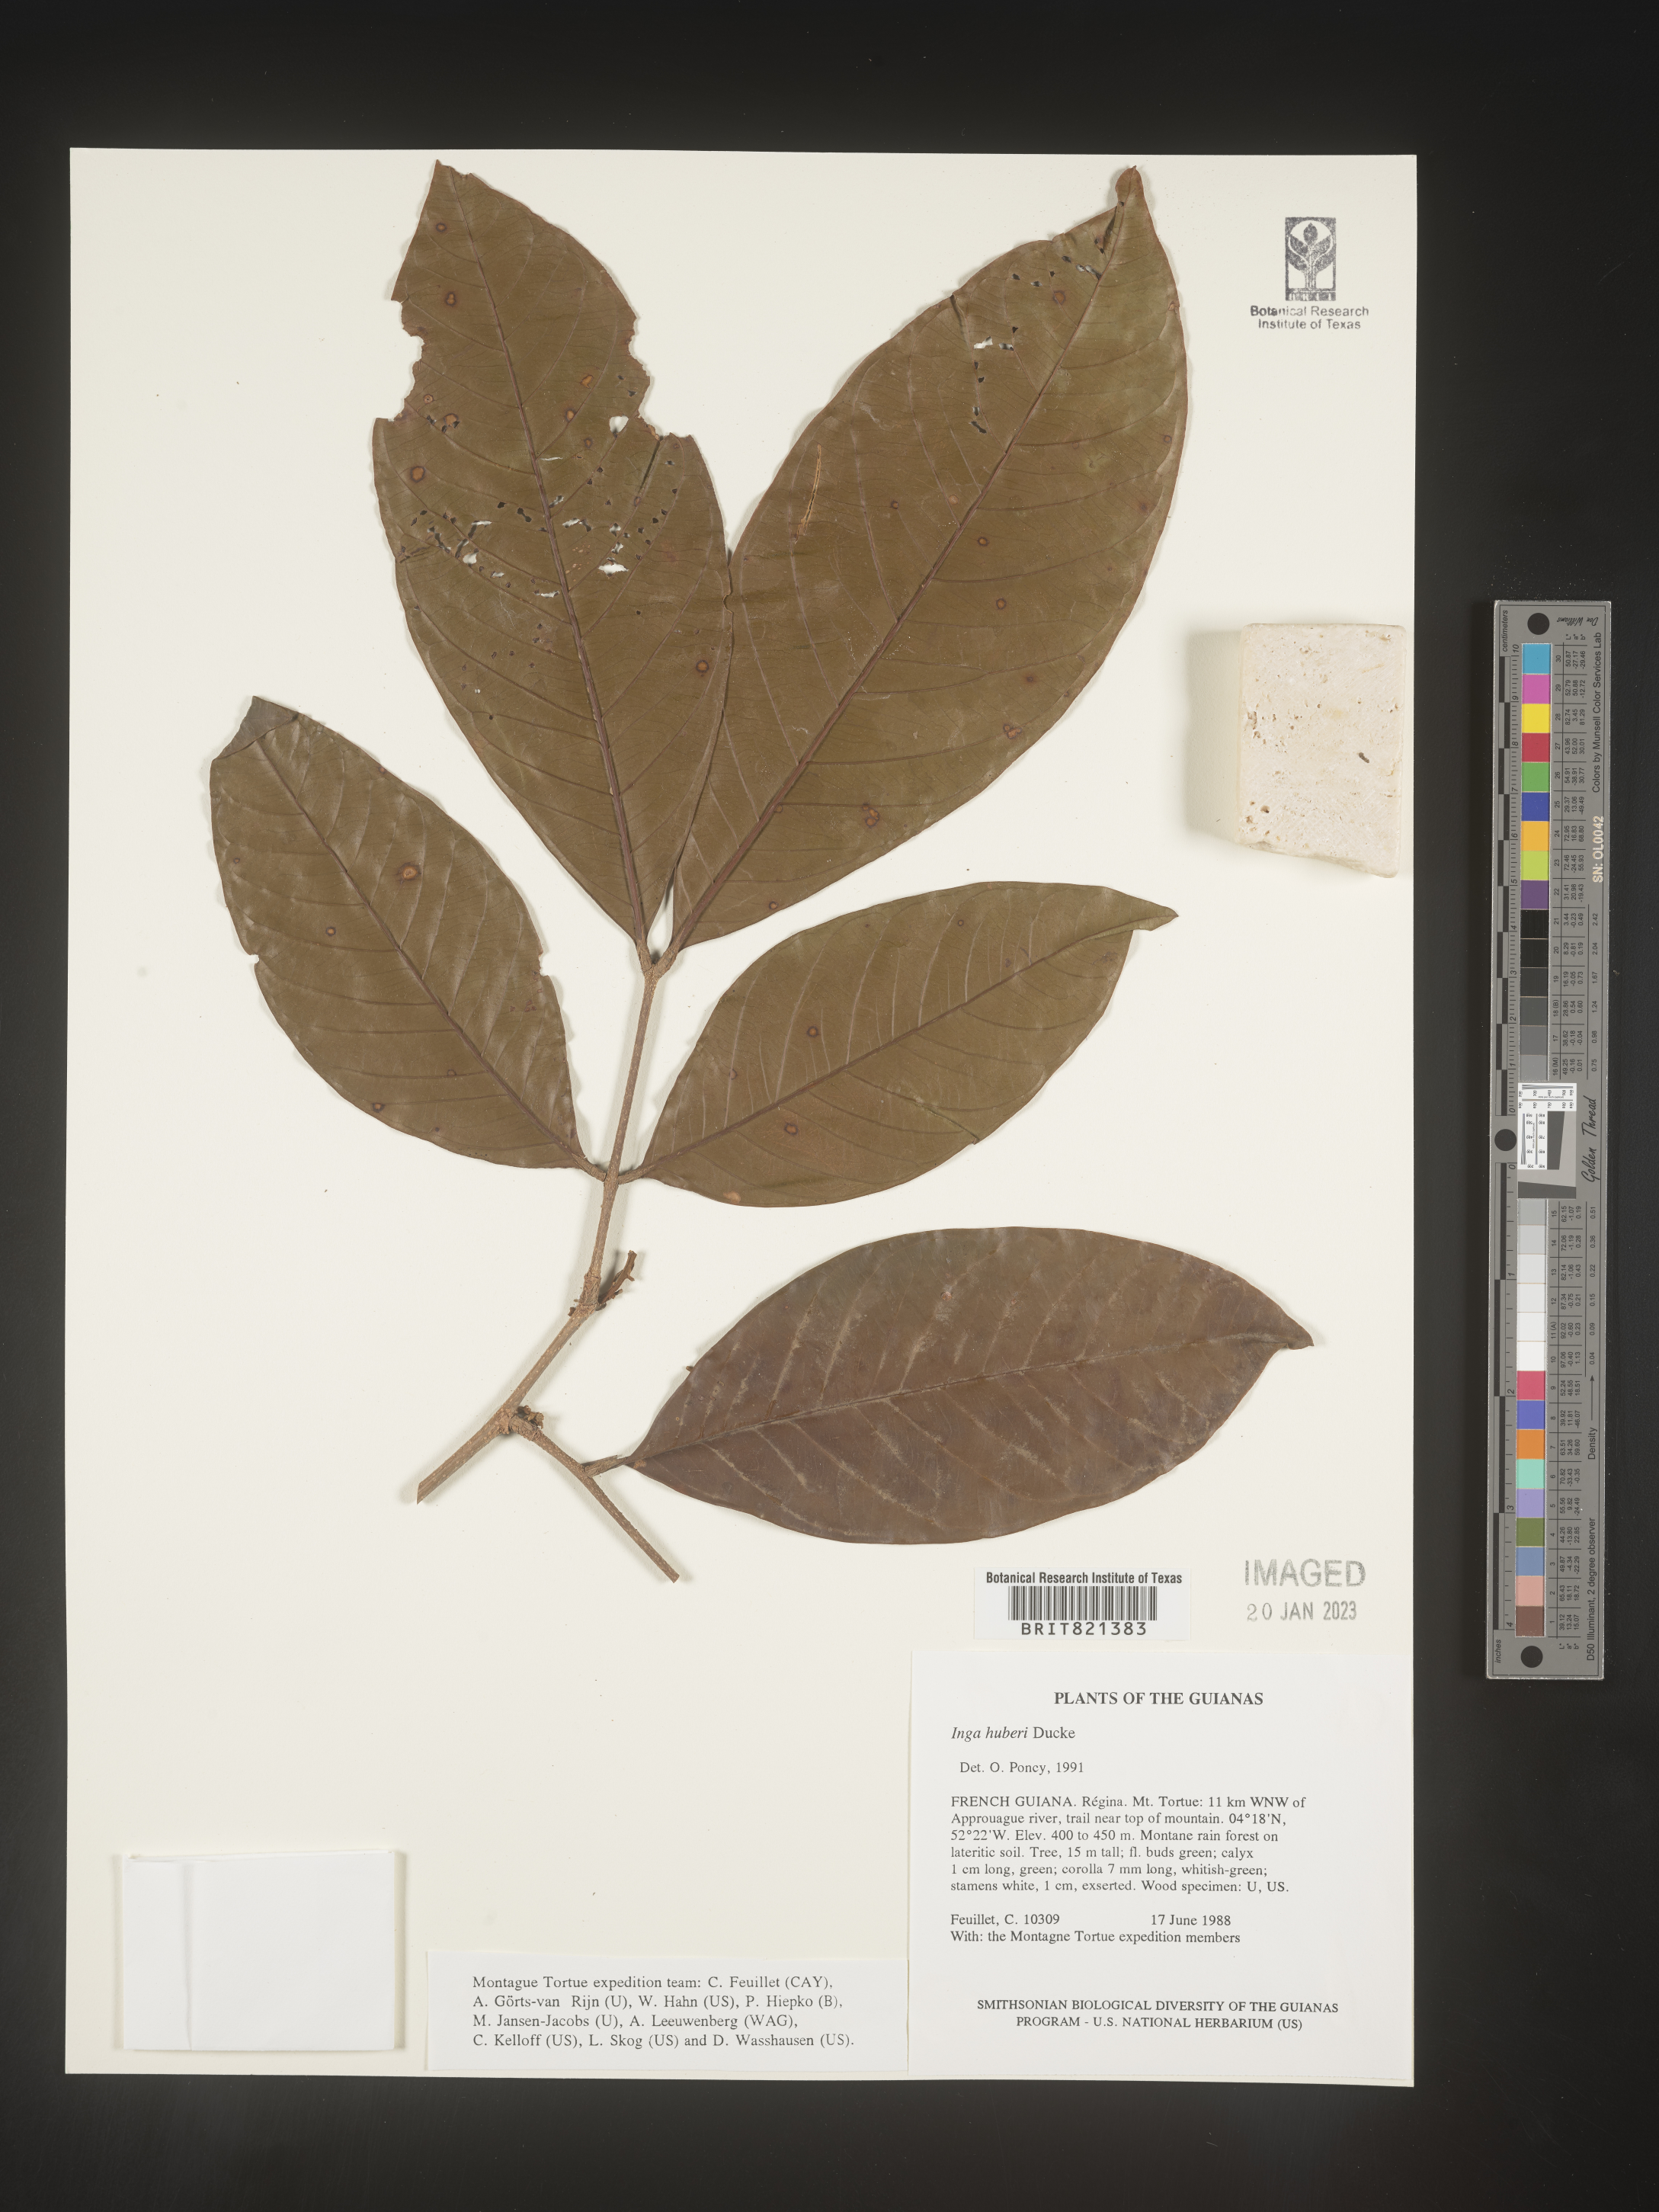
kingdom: Plantae
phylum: Tracheophyta
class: Magnoliopsida
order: Fabales
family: Fabaceae
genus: Inga
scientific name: Inga
